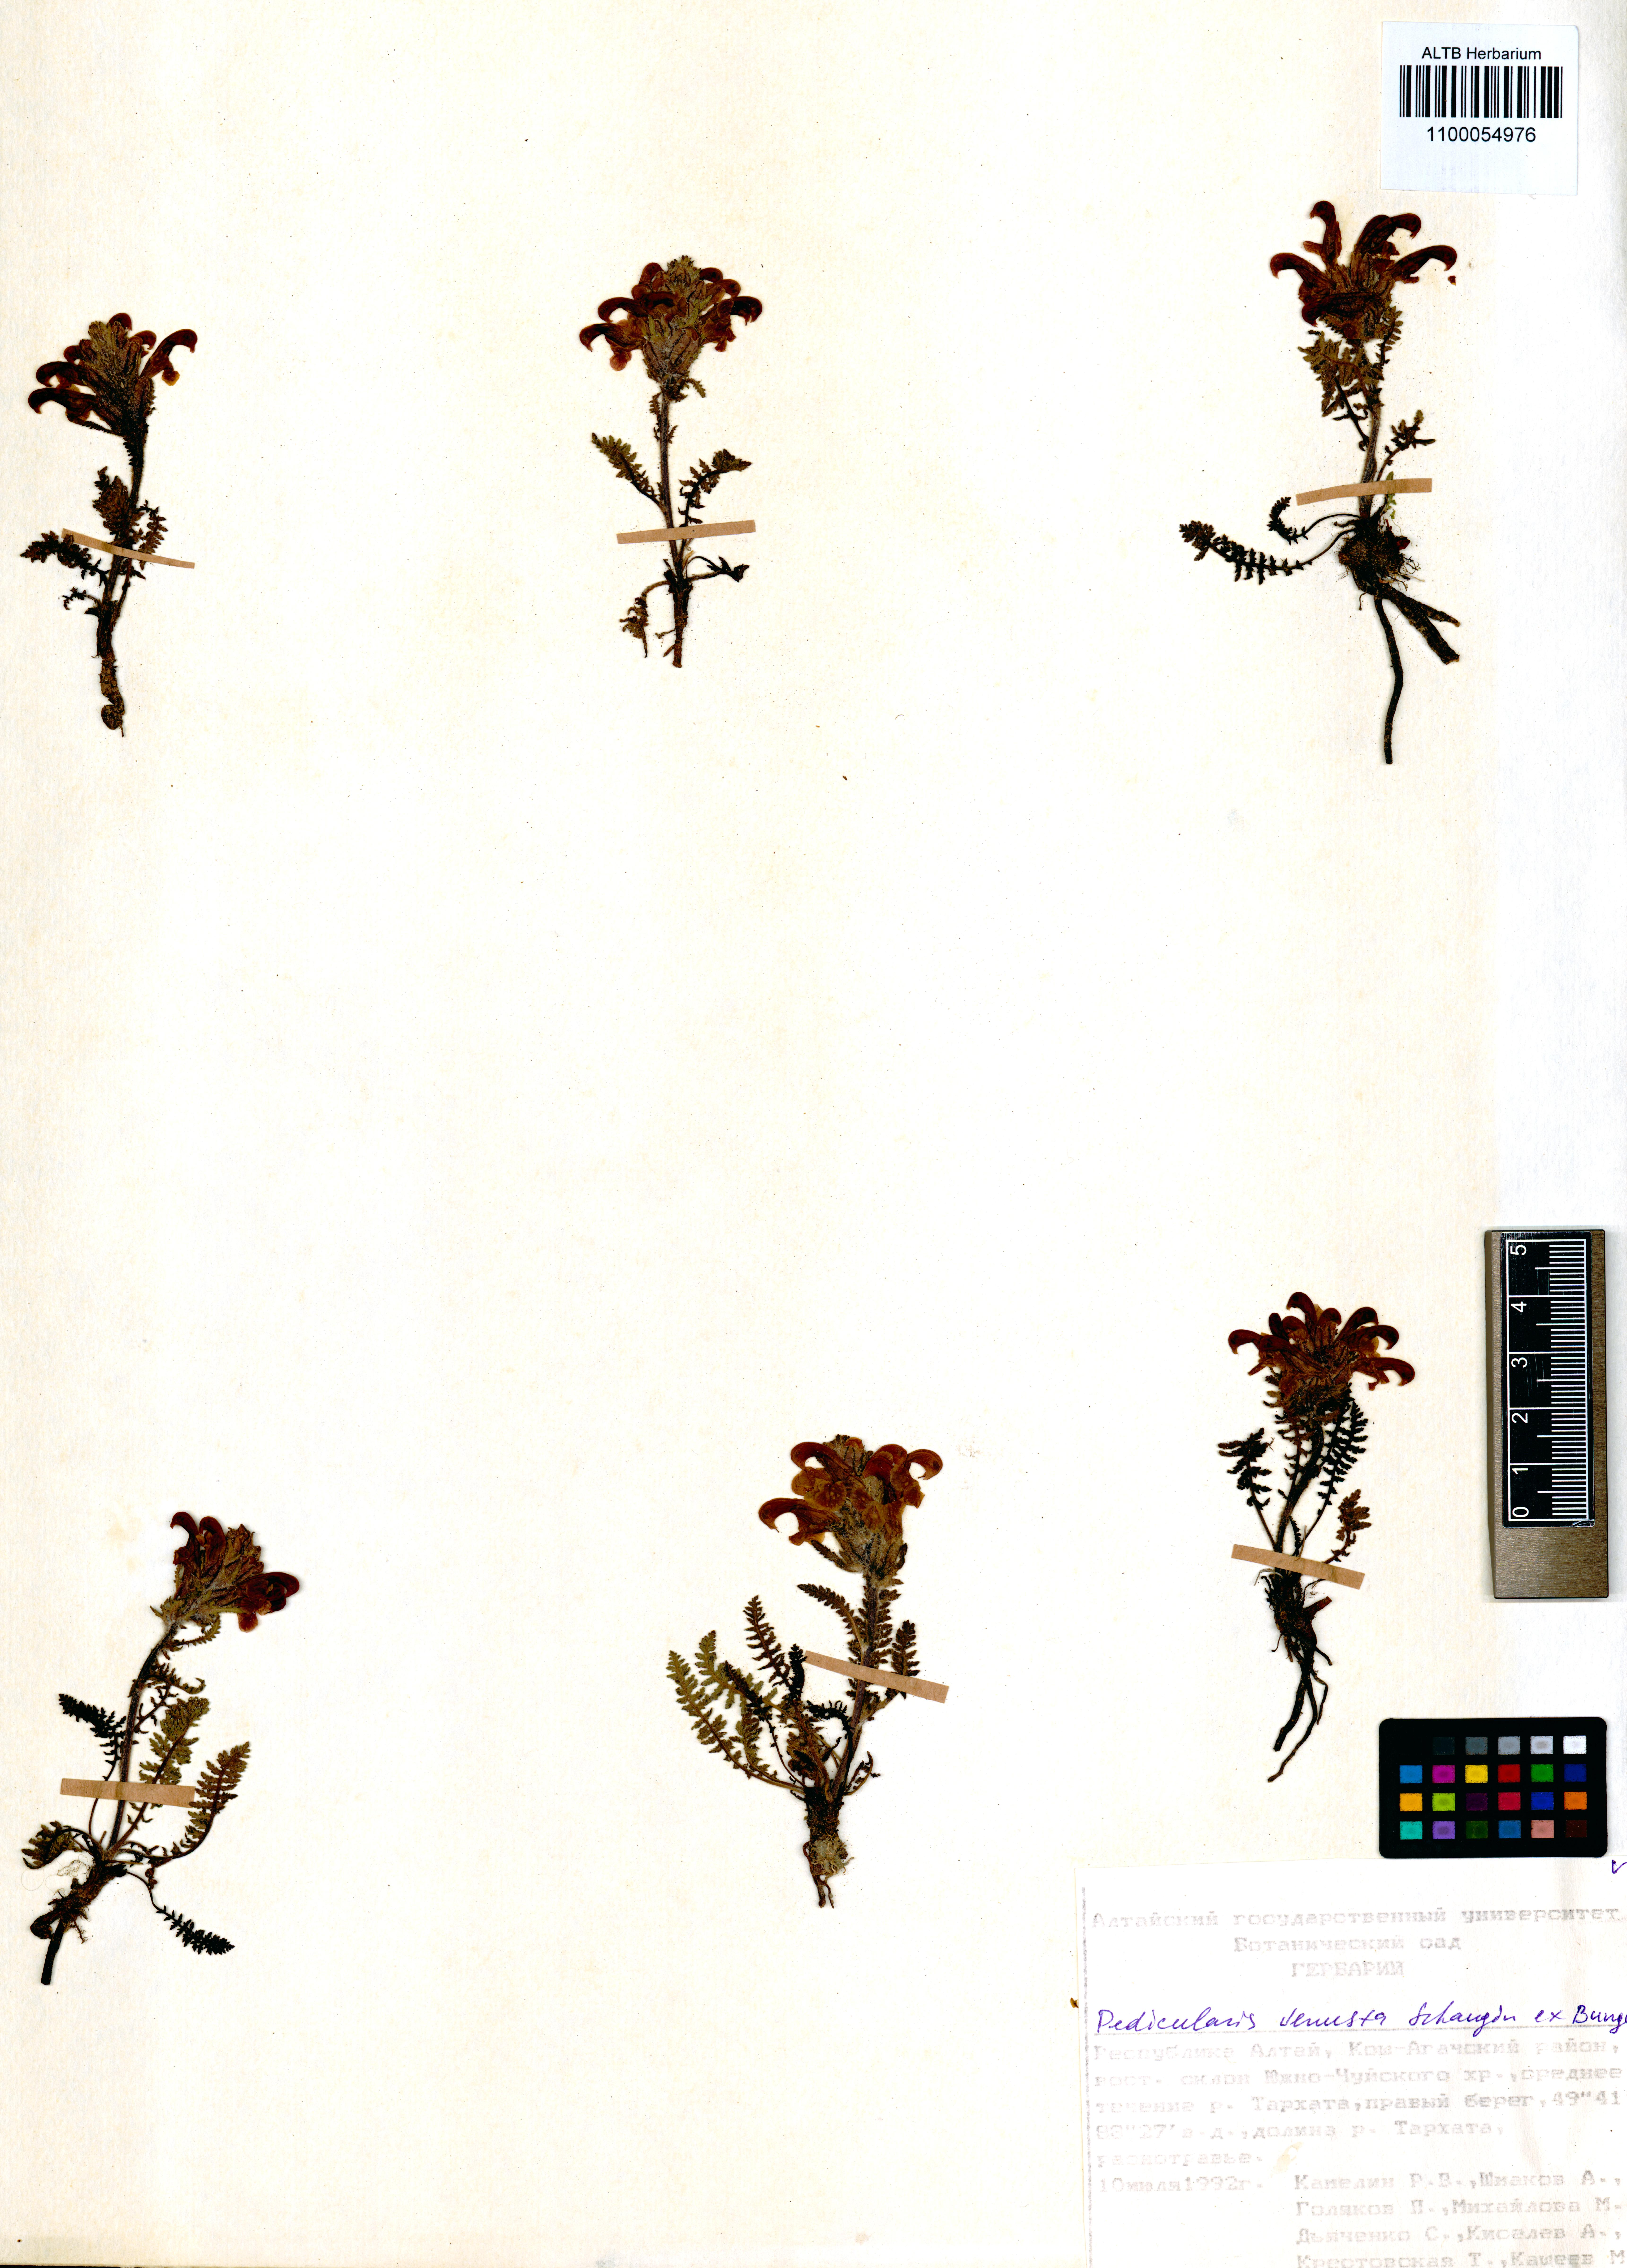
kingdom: Plantae
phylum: Tracheophyta
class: Magnoliopsida
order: Lamiales
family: Orobanchaceae
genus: Pedicularis
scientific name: Pedicularis venusta
